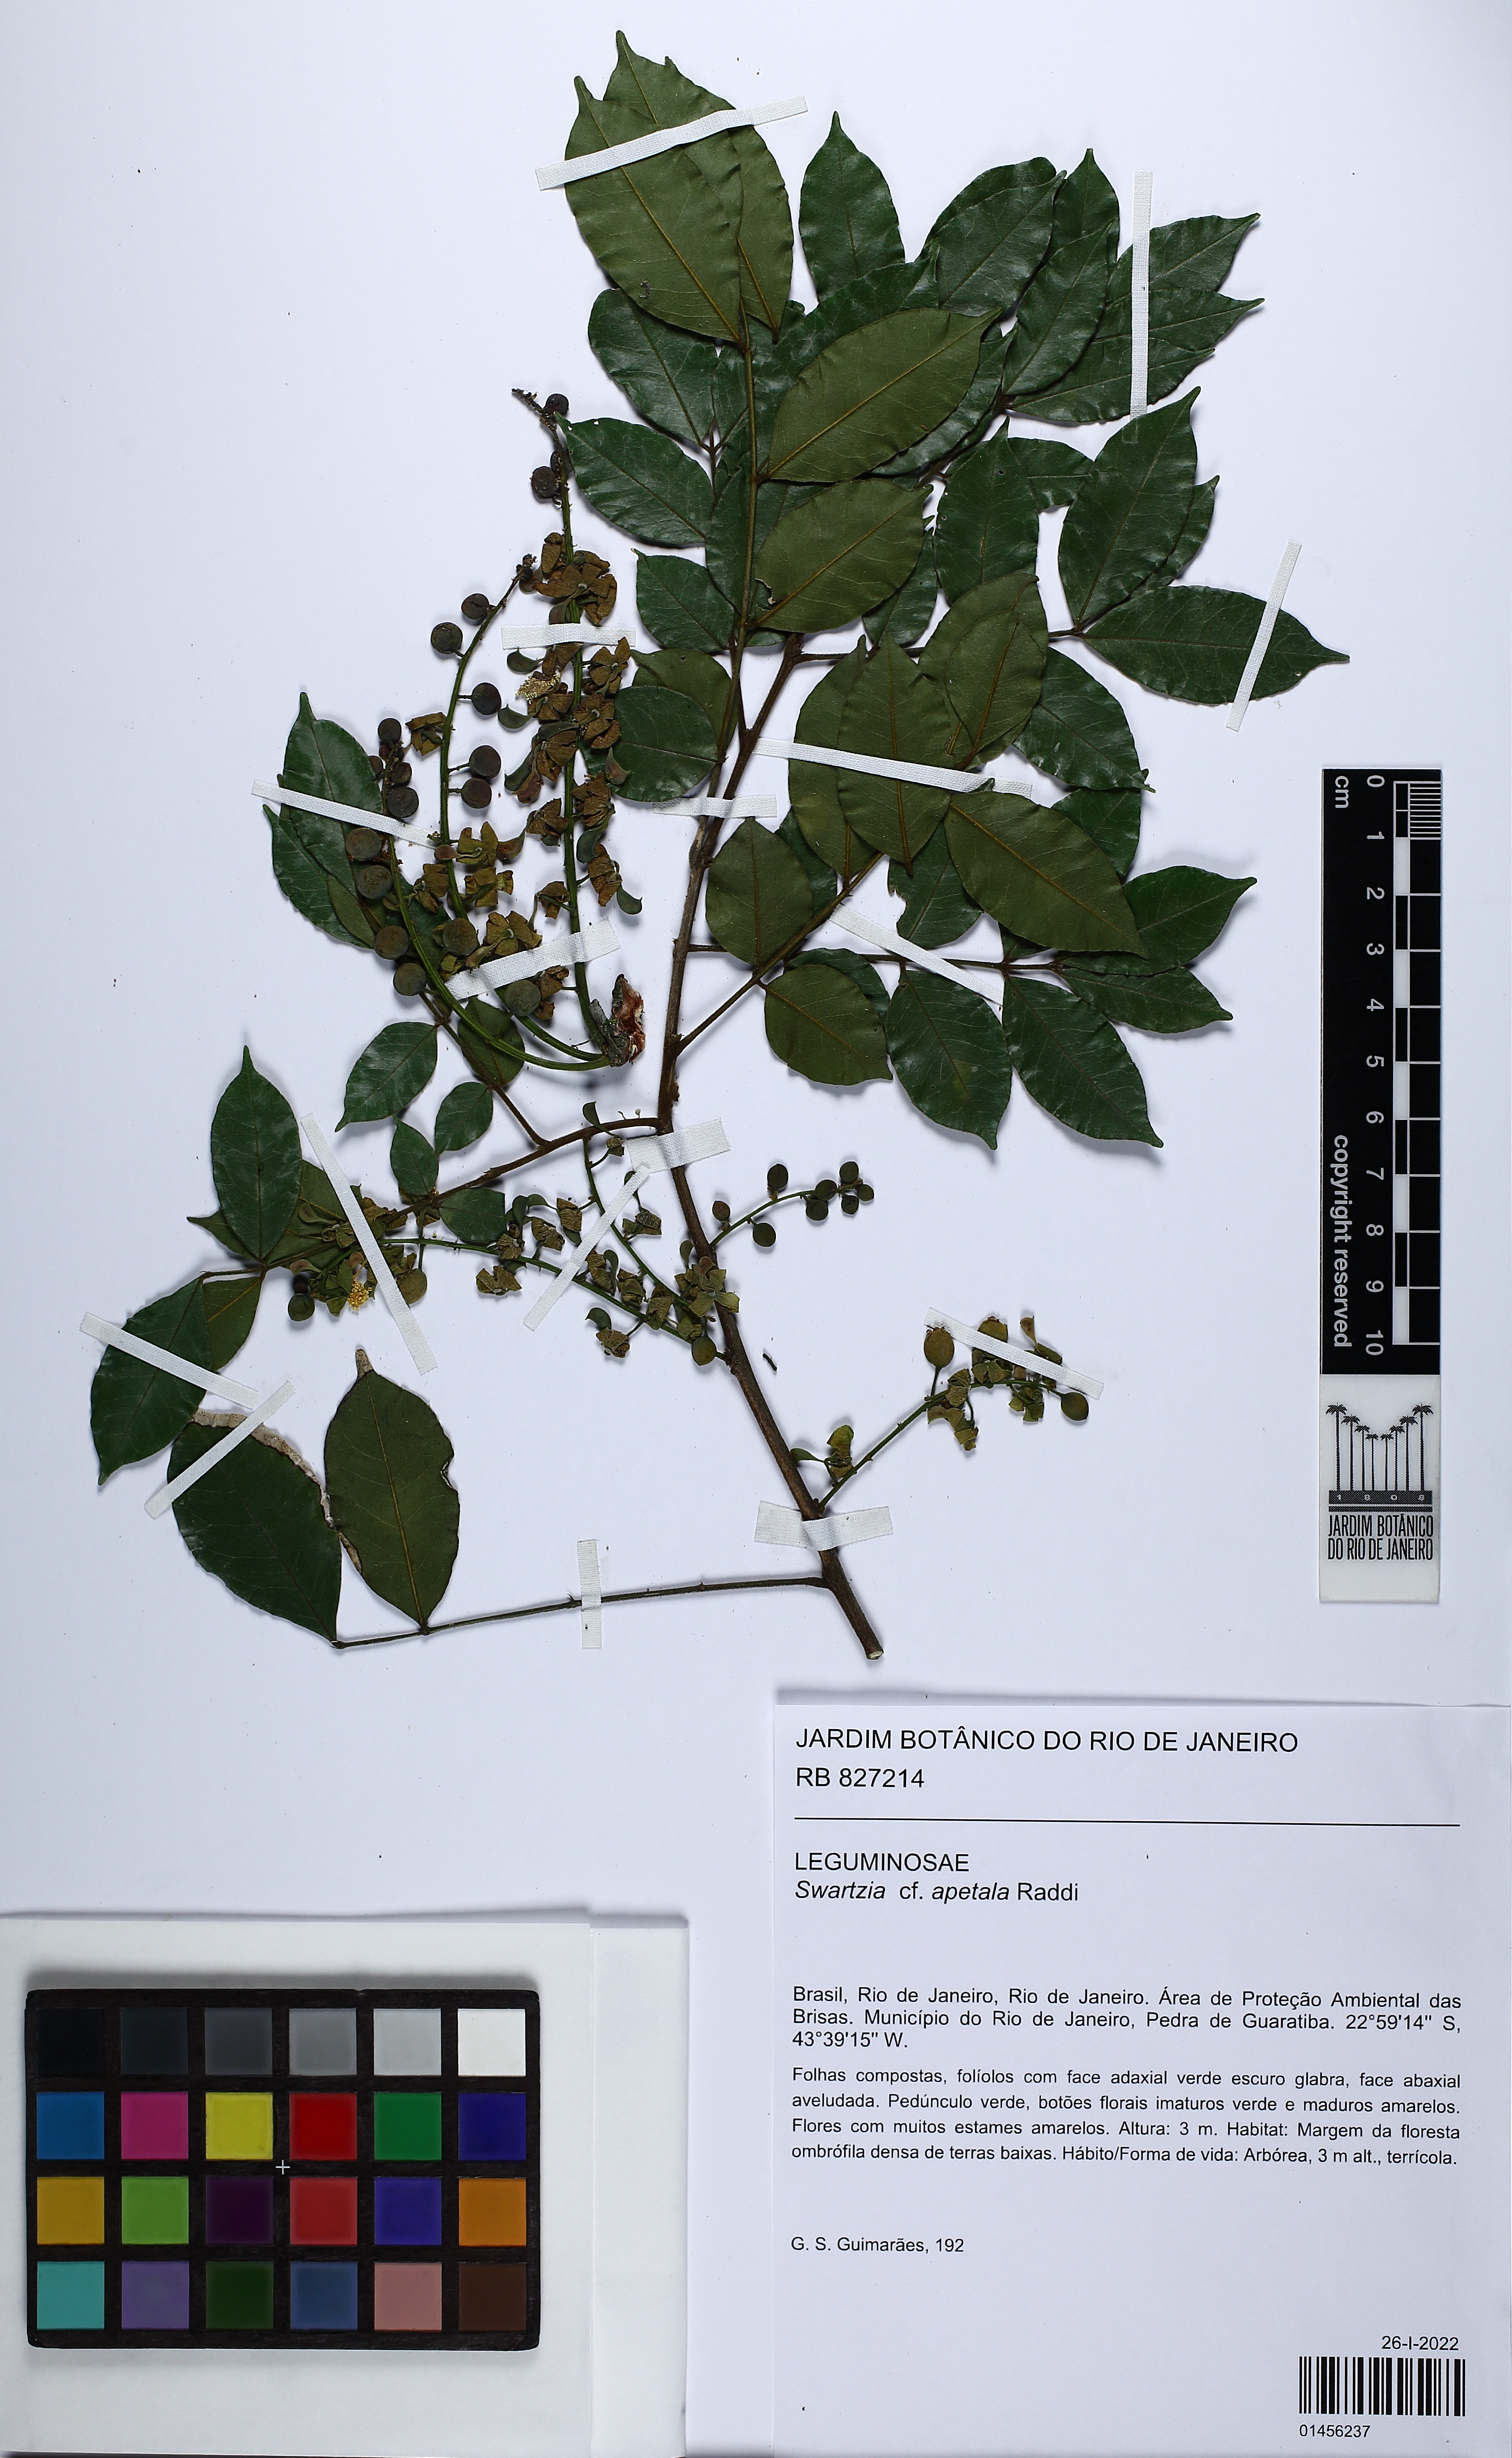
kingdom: Plantae
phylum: Tracheophyta
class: Magnoliopsida
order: Fabales
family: Fabaceae
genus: Swartzia
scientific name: Swartzia apetala
